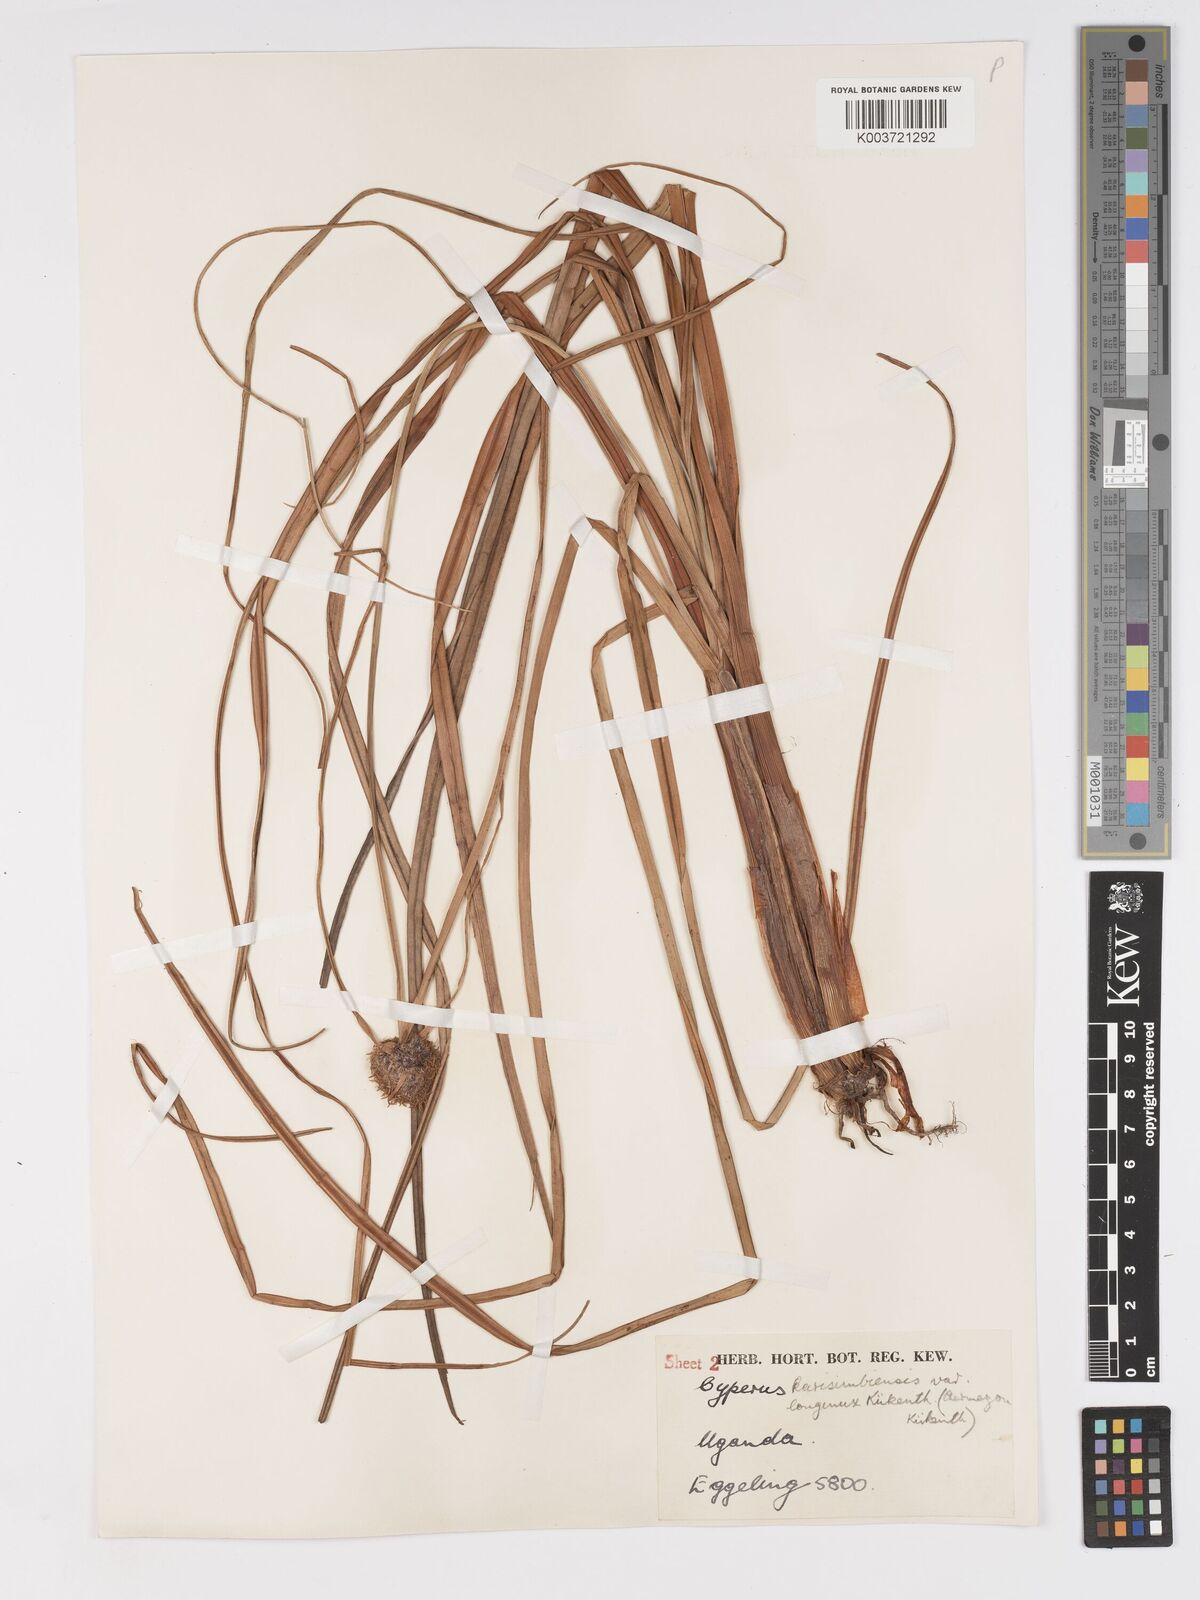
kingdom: Plantae
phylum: Tracheophyta
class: Liliopsida
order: Poales
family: Cyperaceae
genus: Cyperus
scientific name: Cyperus kerstenii
